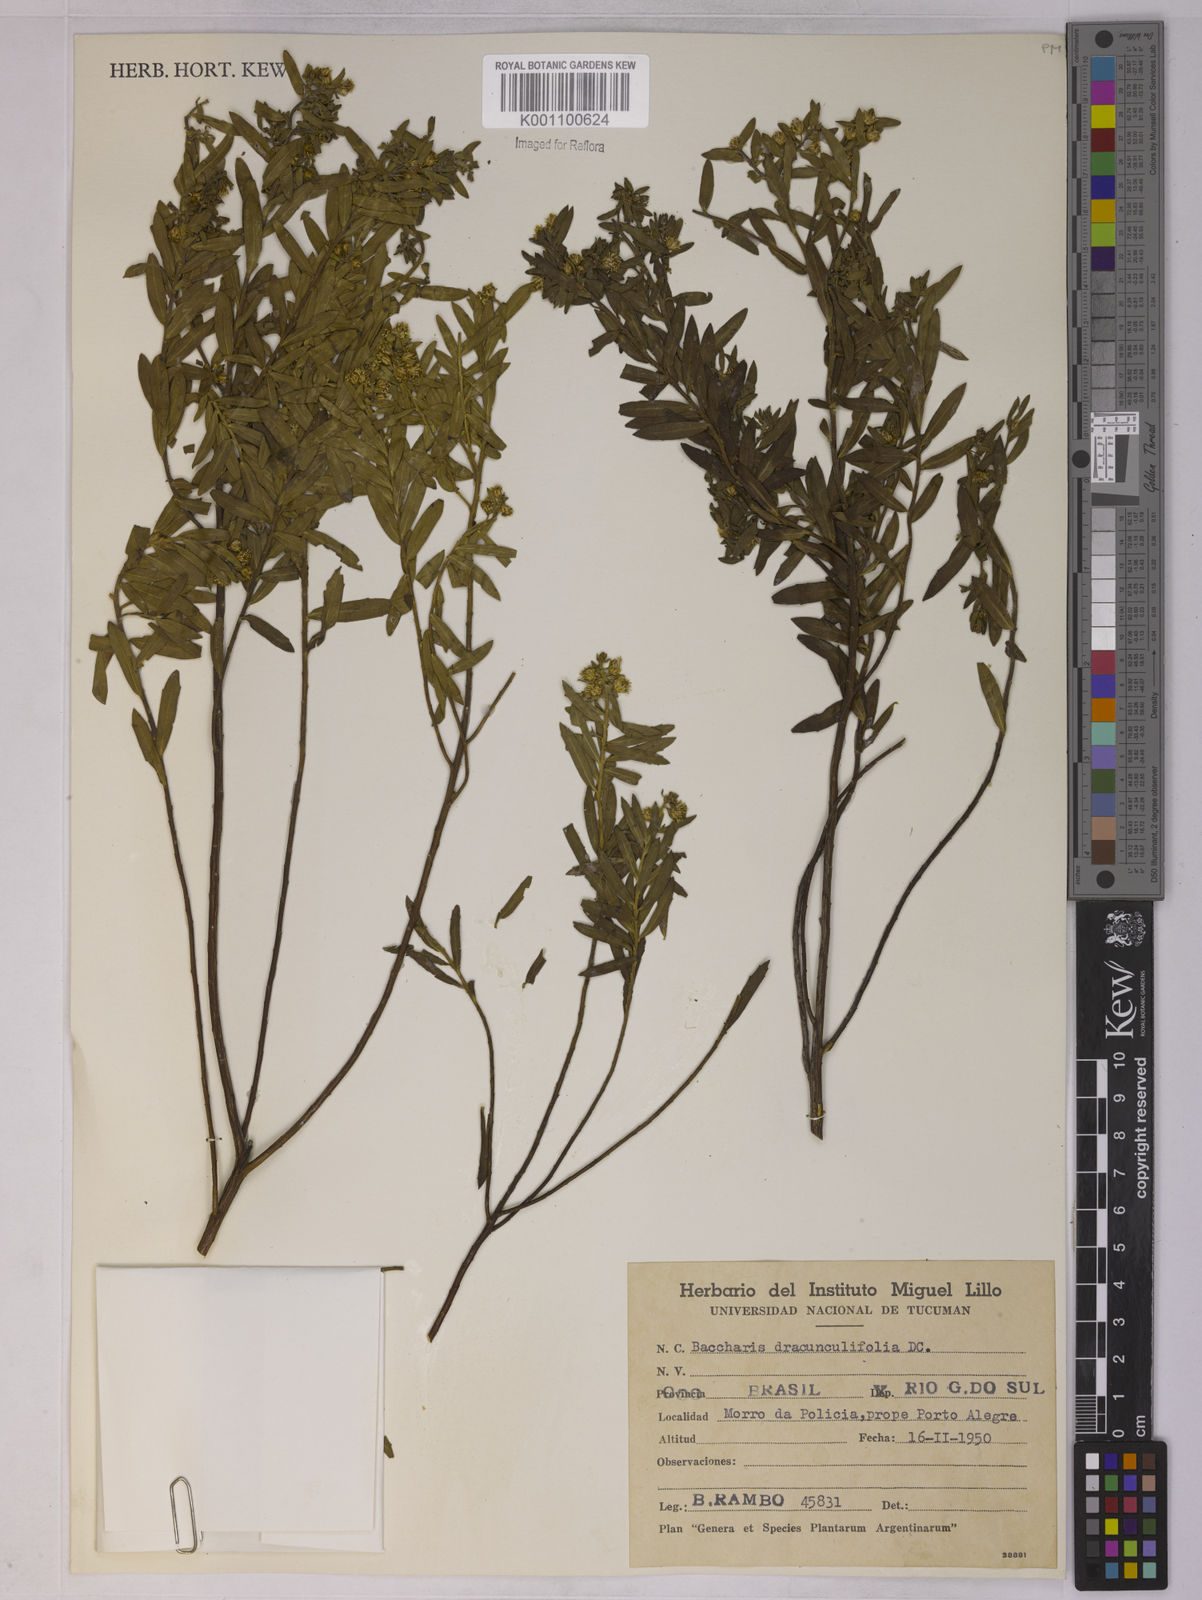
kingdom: Plantae
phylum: Tracheophyta
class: Magnoliopsida
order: Asterales
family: Asteraceae
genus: Baccharis
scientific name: Baccharis dracunculifolia
